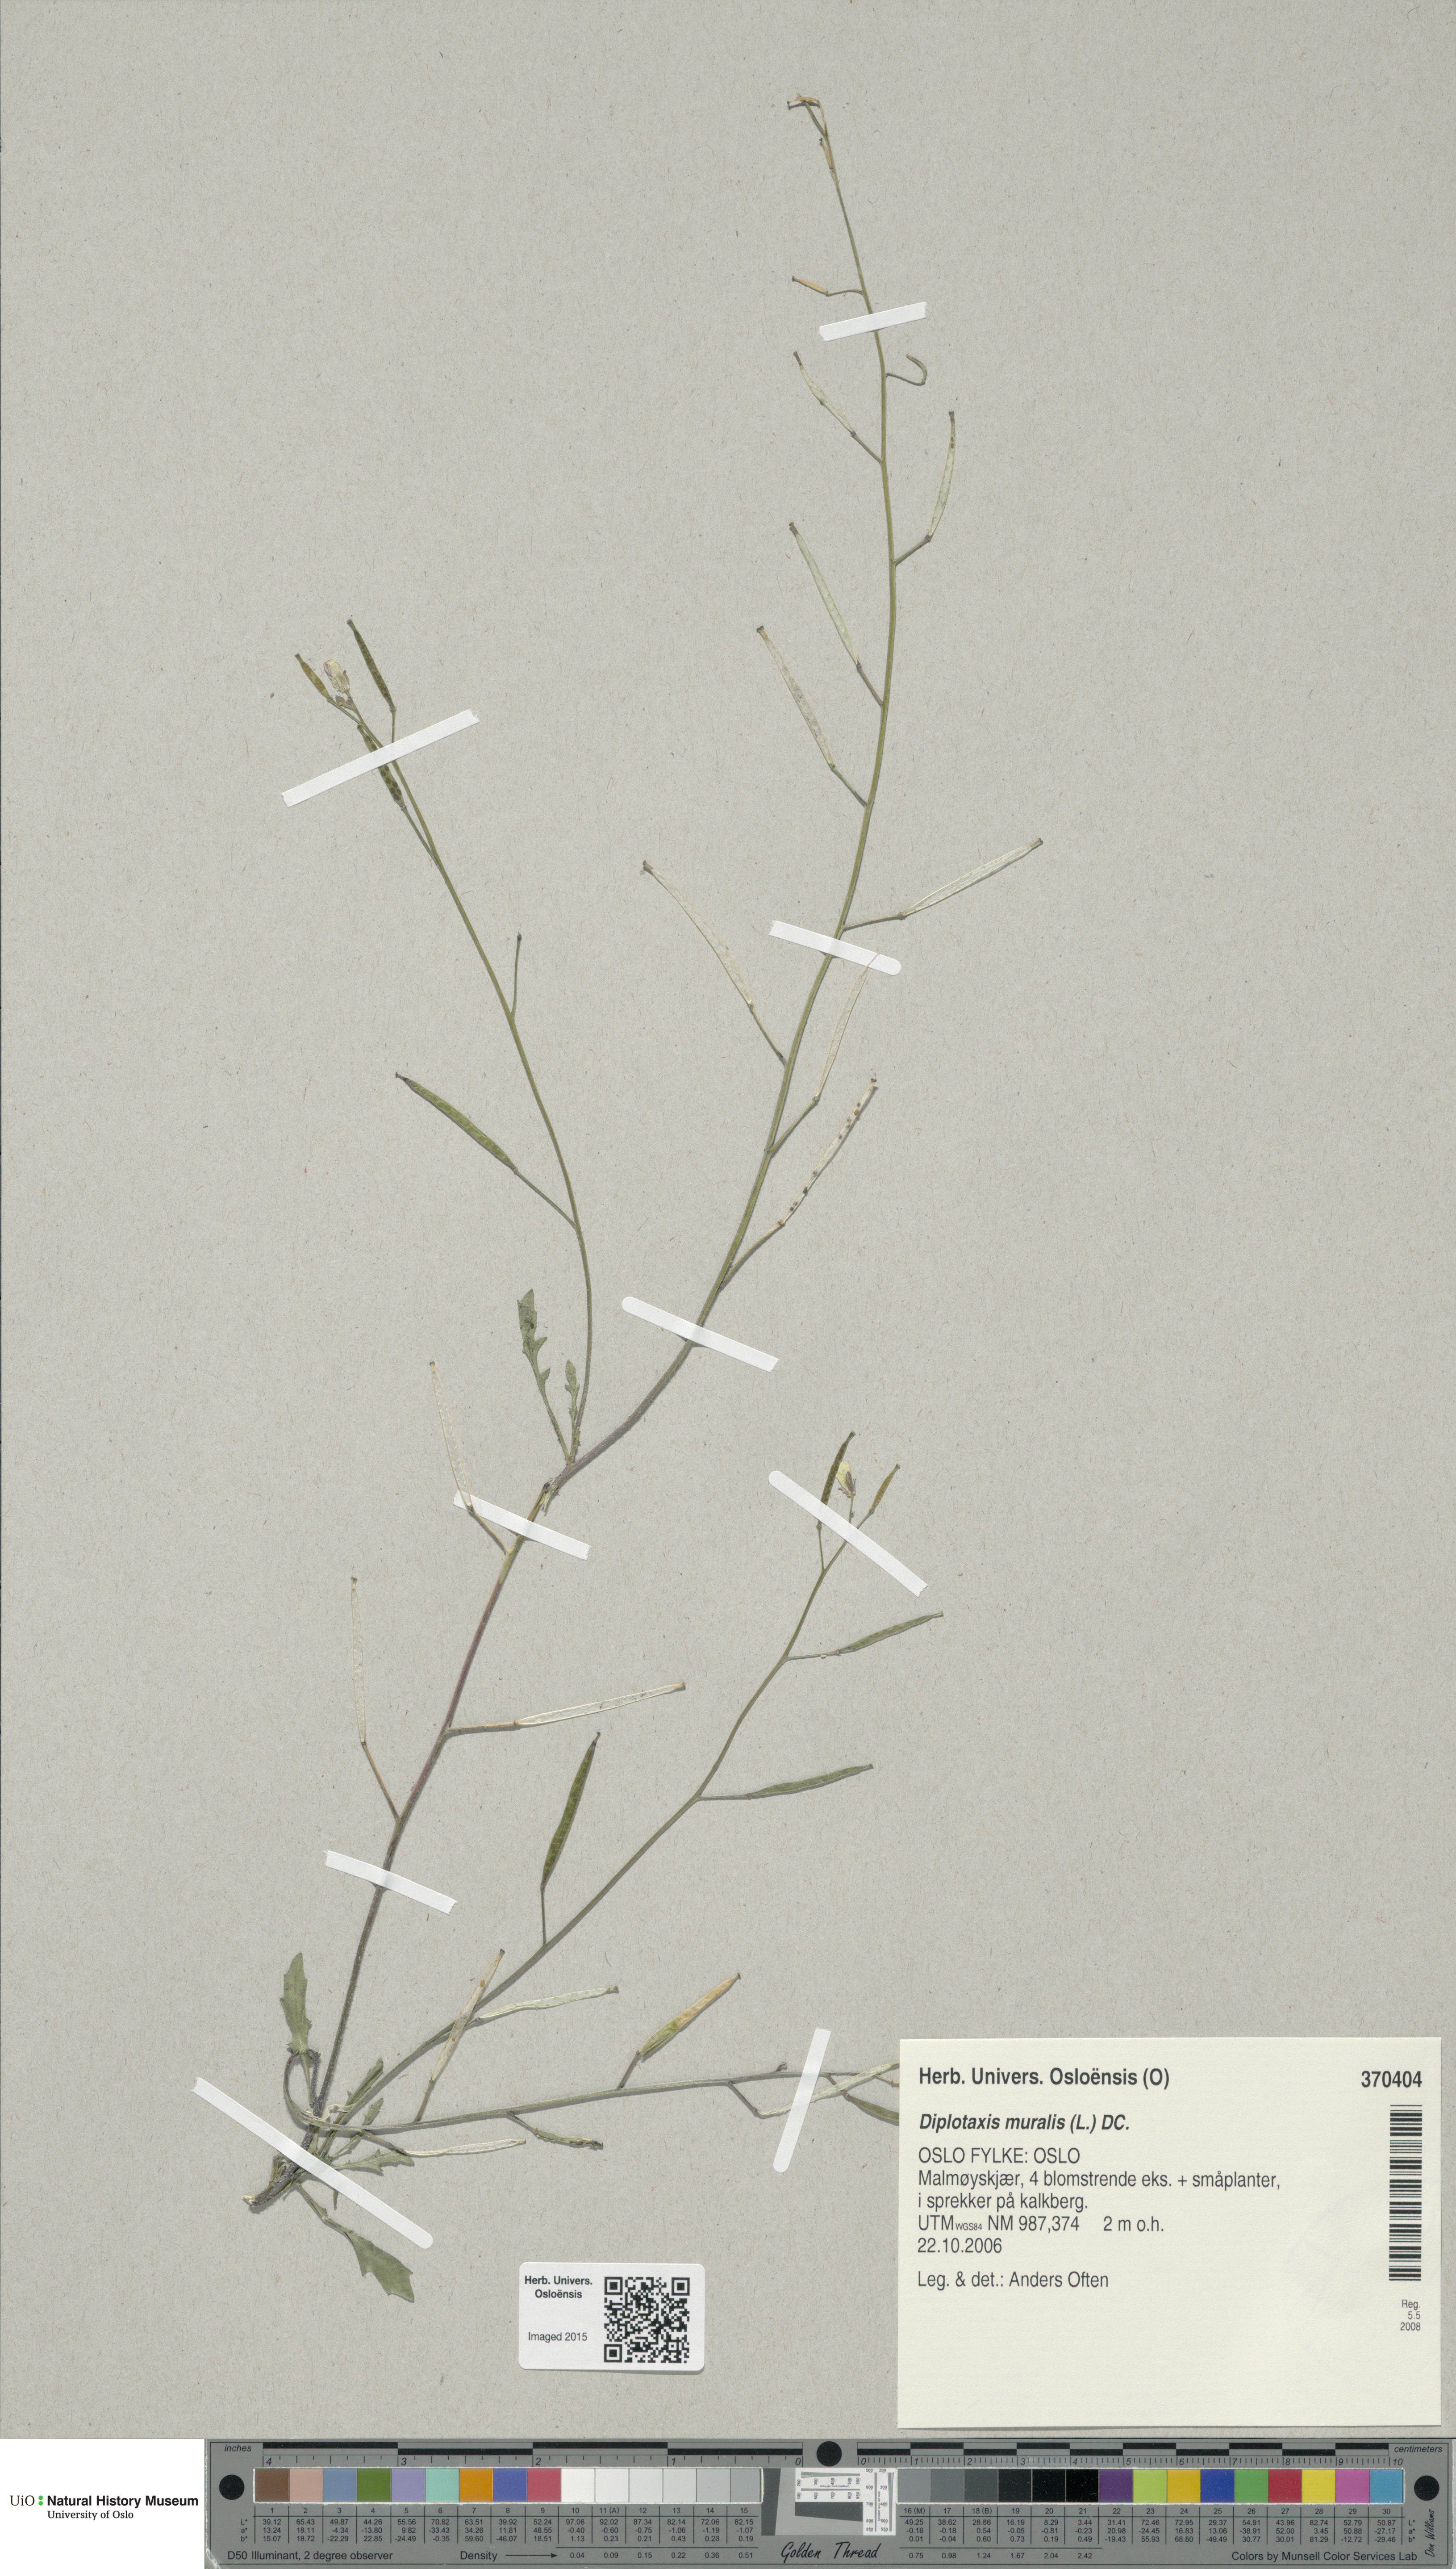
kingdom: Plantae
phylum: Tracheophyta
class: Magnoliopsida
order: Brassicales
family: Brassicaceae
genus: Diplotaxis
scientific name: Diplotaxis muralis
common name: Annual wall-rocket
